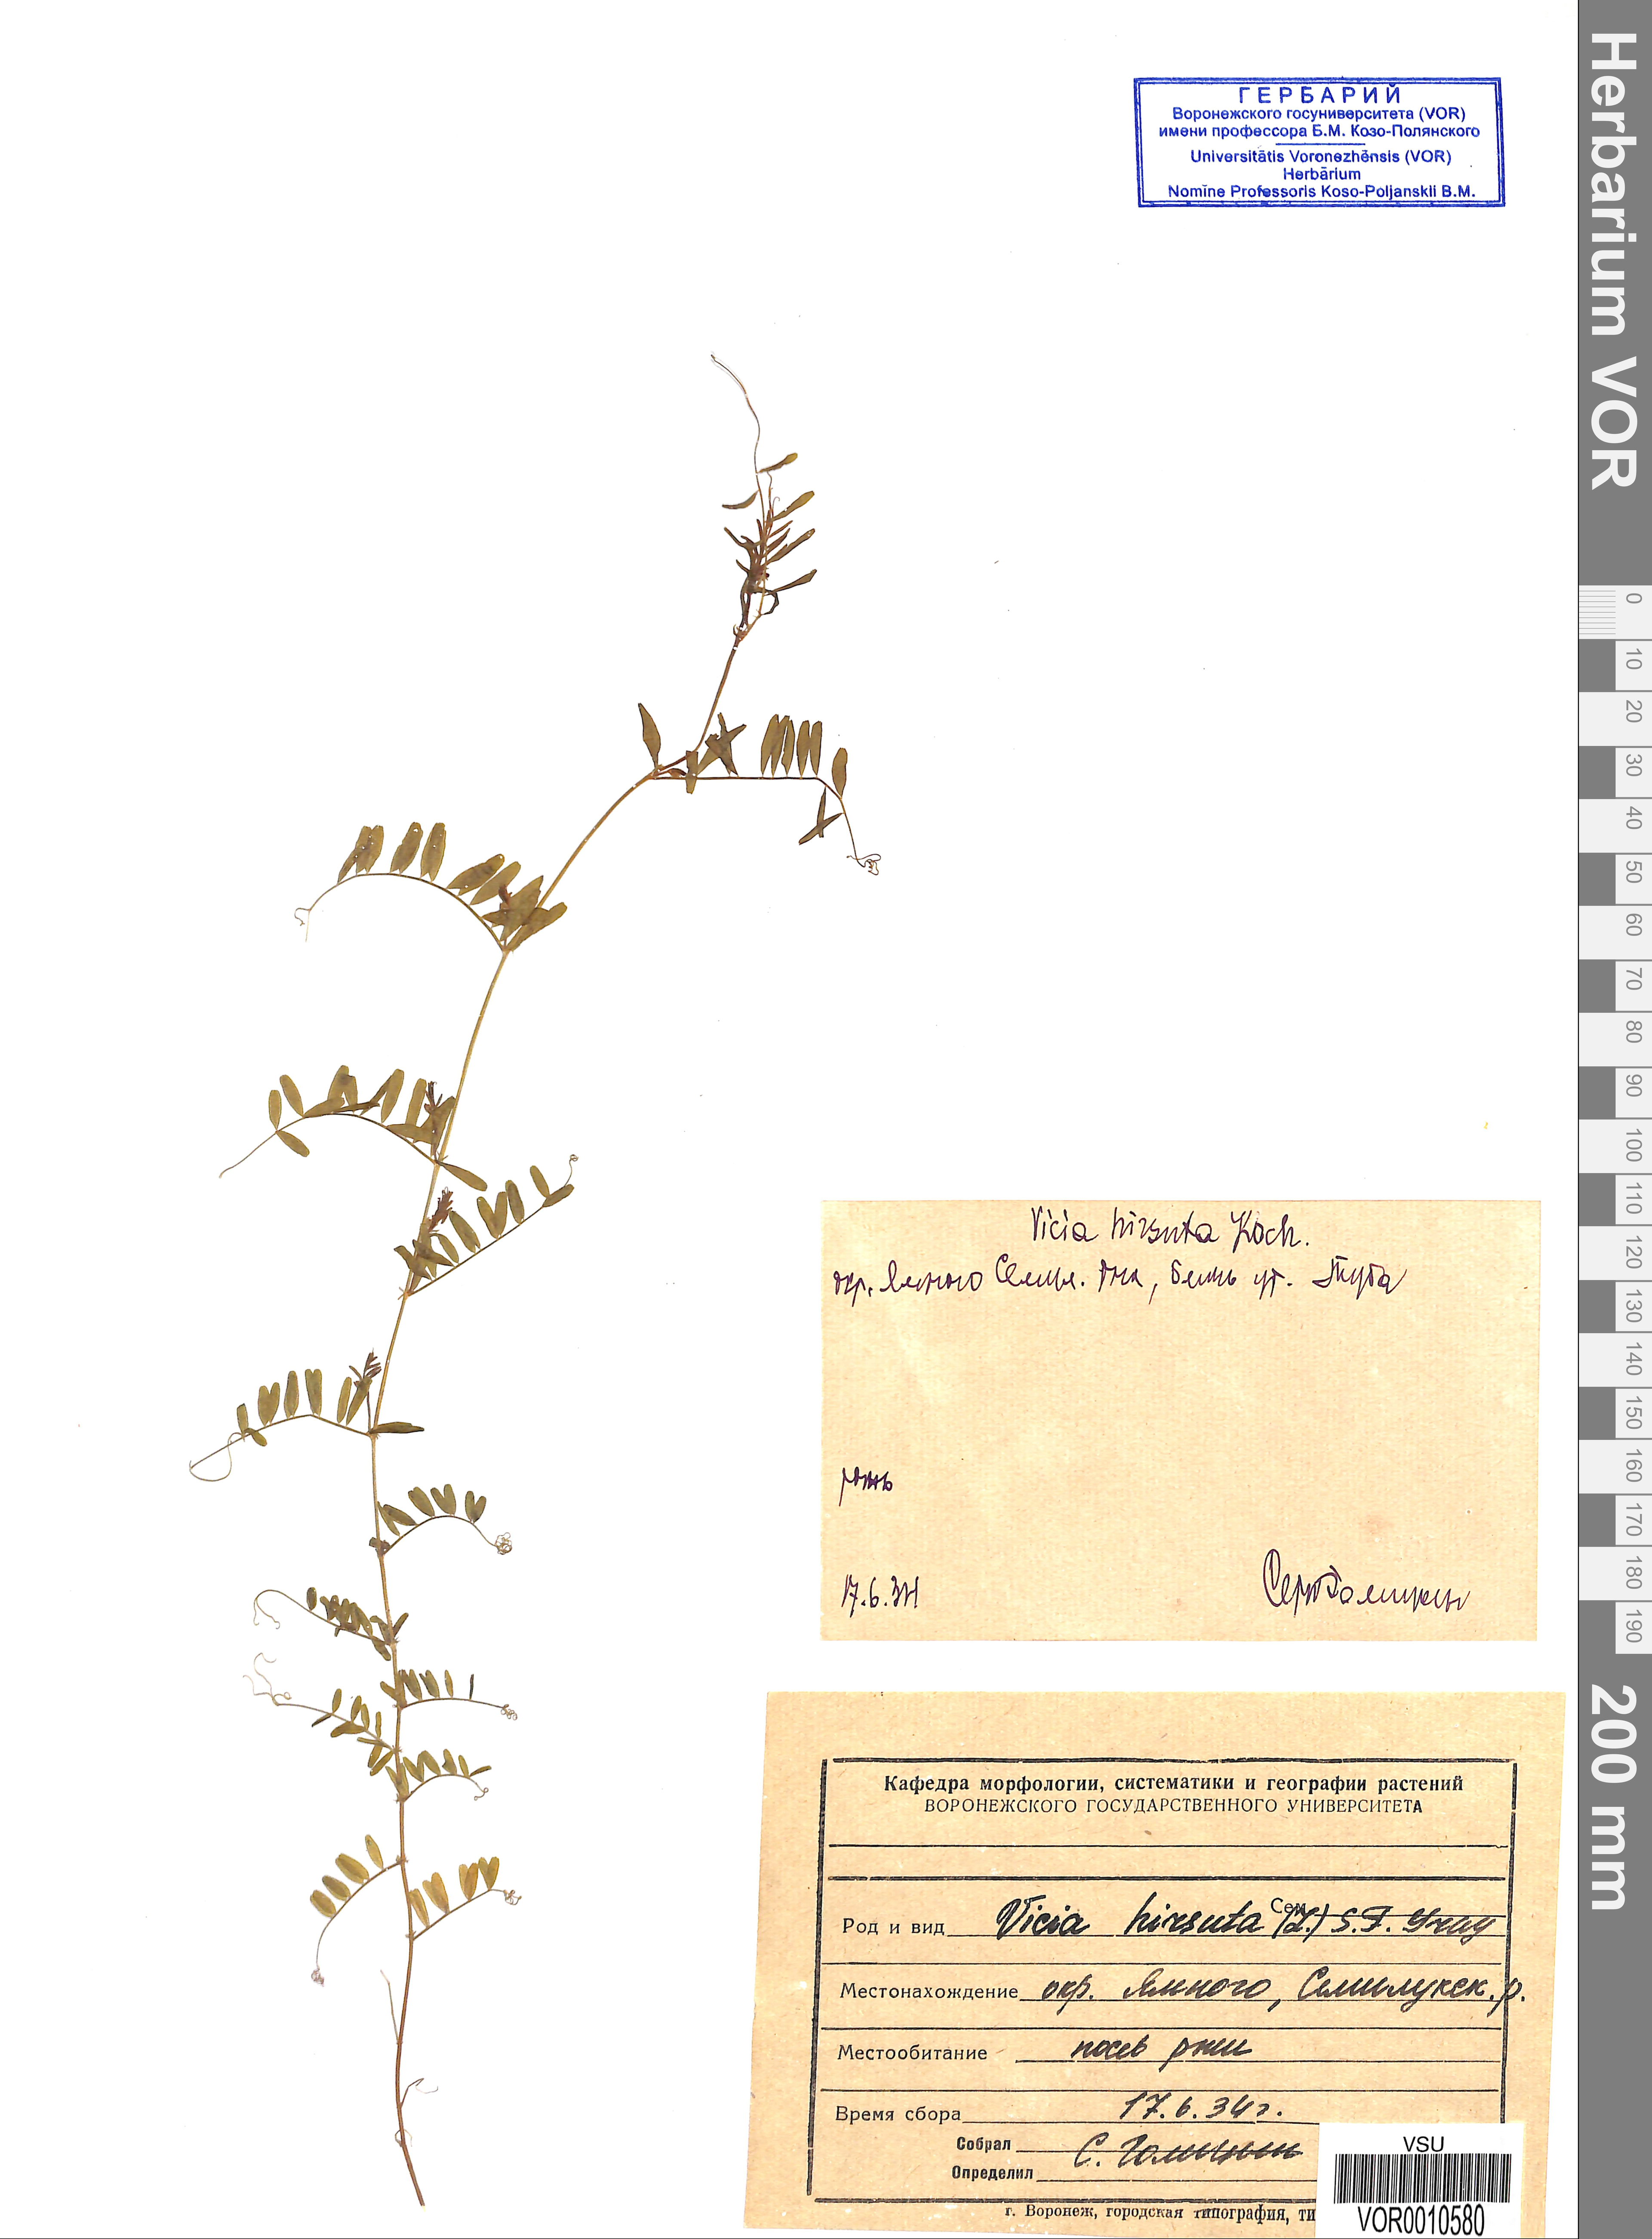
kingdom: Plantae
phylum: Tracheophyta
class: Magnoliopsida
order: Fabales
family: Fabaceae
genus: Vicia
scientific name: Vicia hirsuta
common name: Tiny vetch
